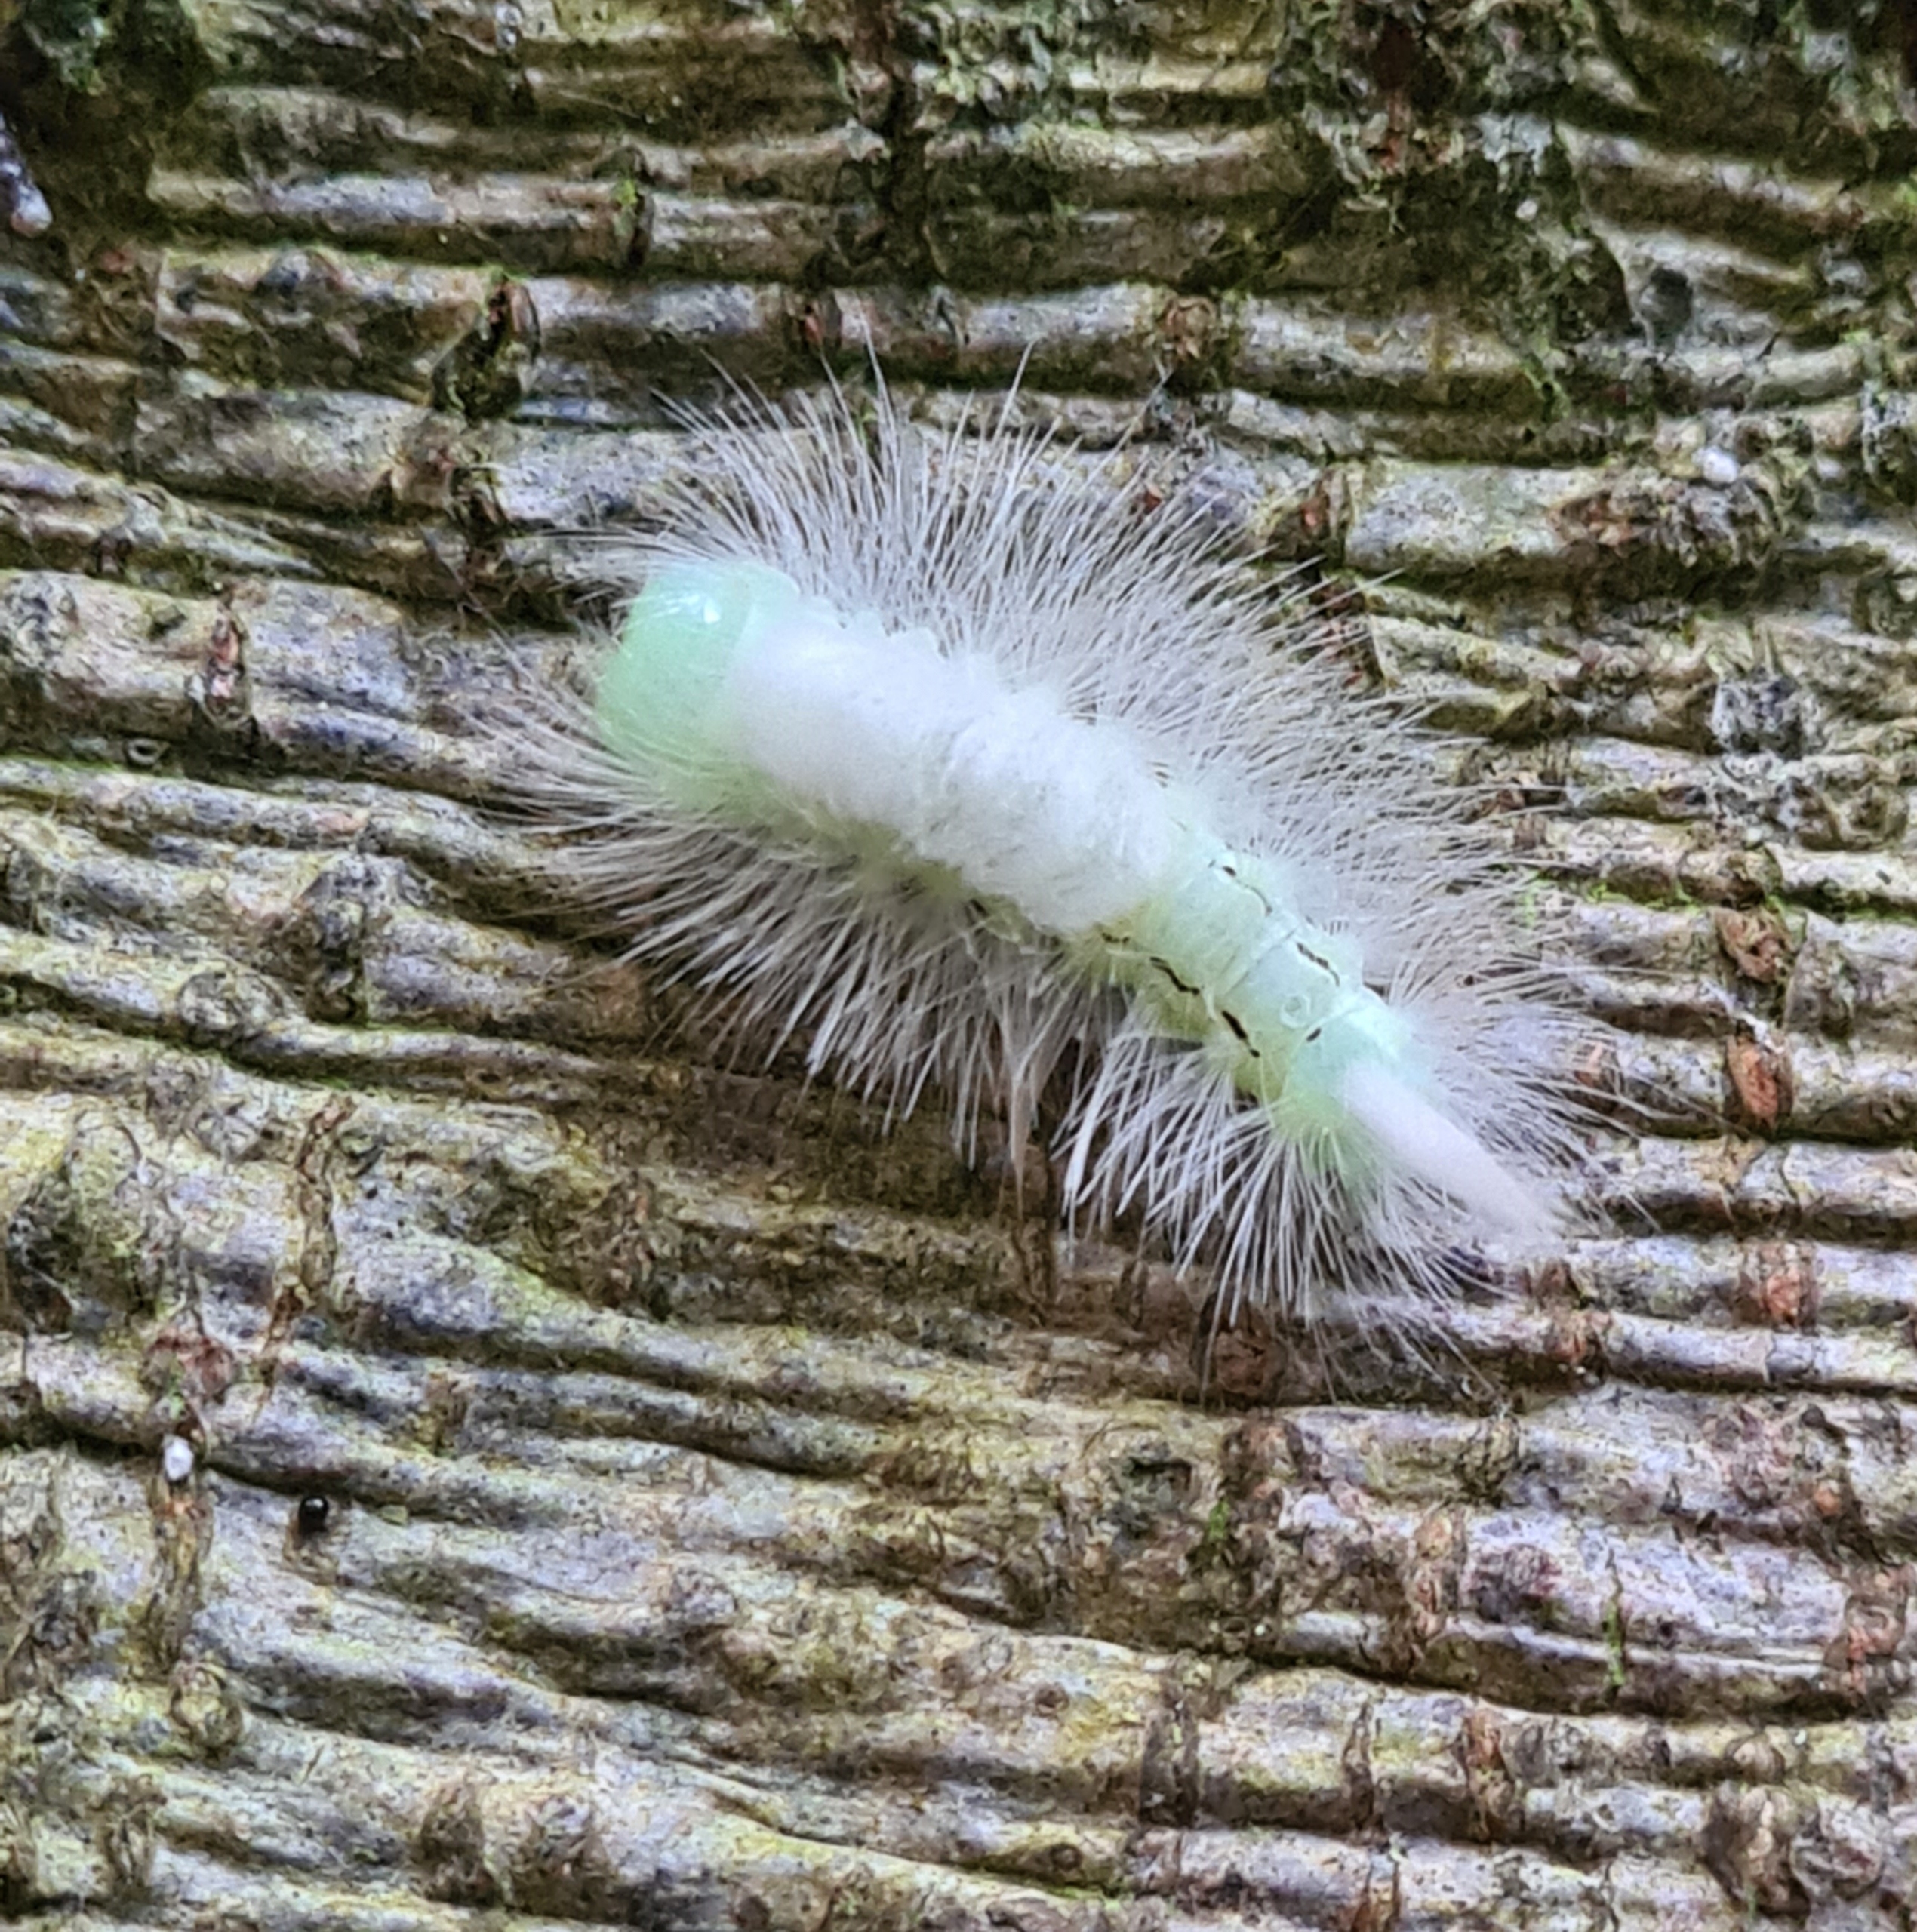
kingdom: Animalia
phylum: Arthropoda
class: Insecta
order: Lepidoptera
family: Erebidae
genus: Calliteara
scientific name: Calliteara pudibunda
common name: Bøgenonne
